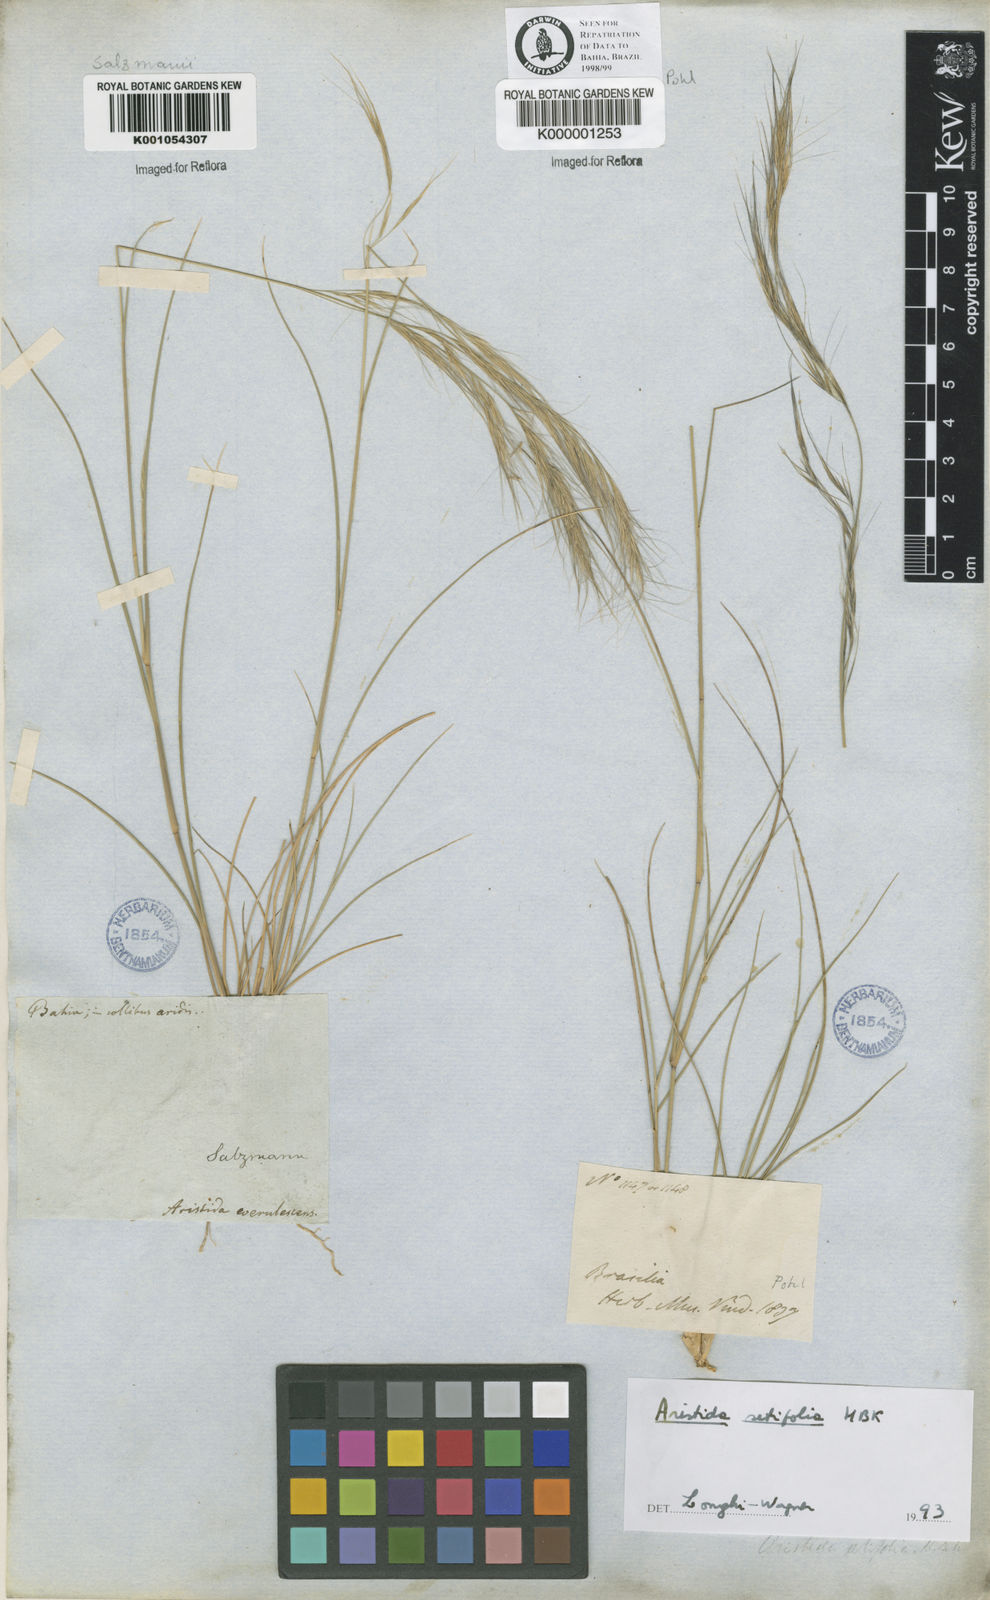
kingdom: Plantae
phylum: Tracheophyta
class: Liliopsida
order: Poales
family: Poaceae
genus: Aristida
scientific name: Aristida setifolia
